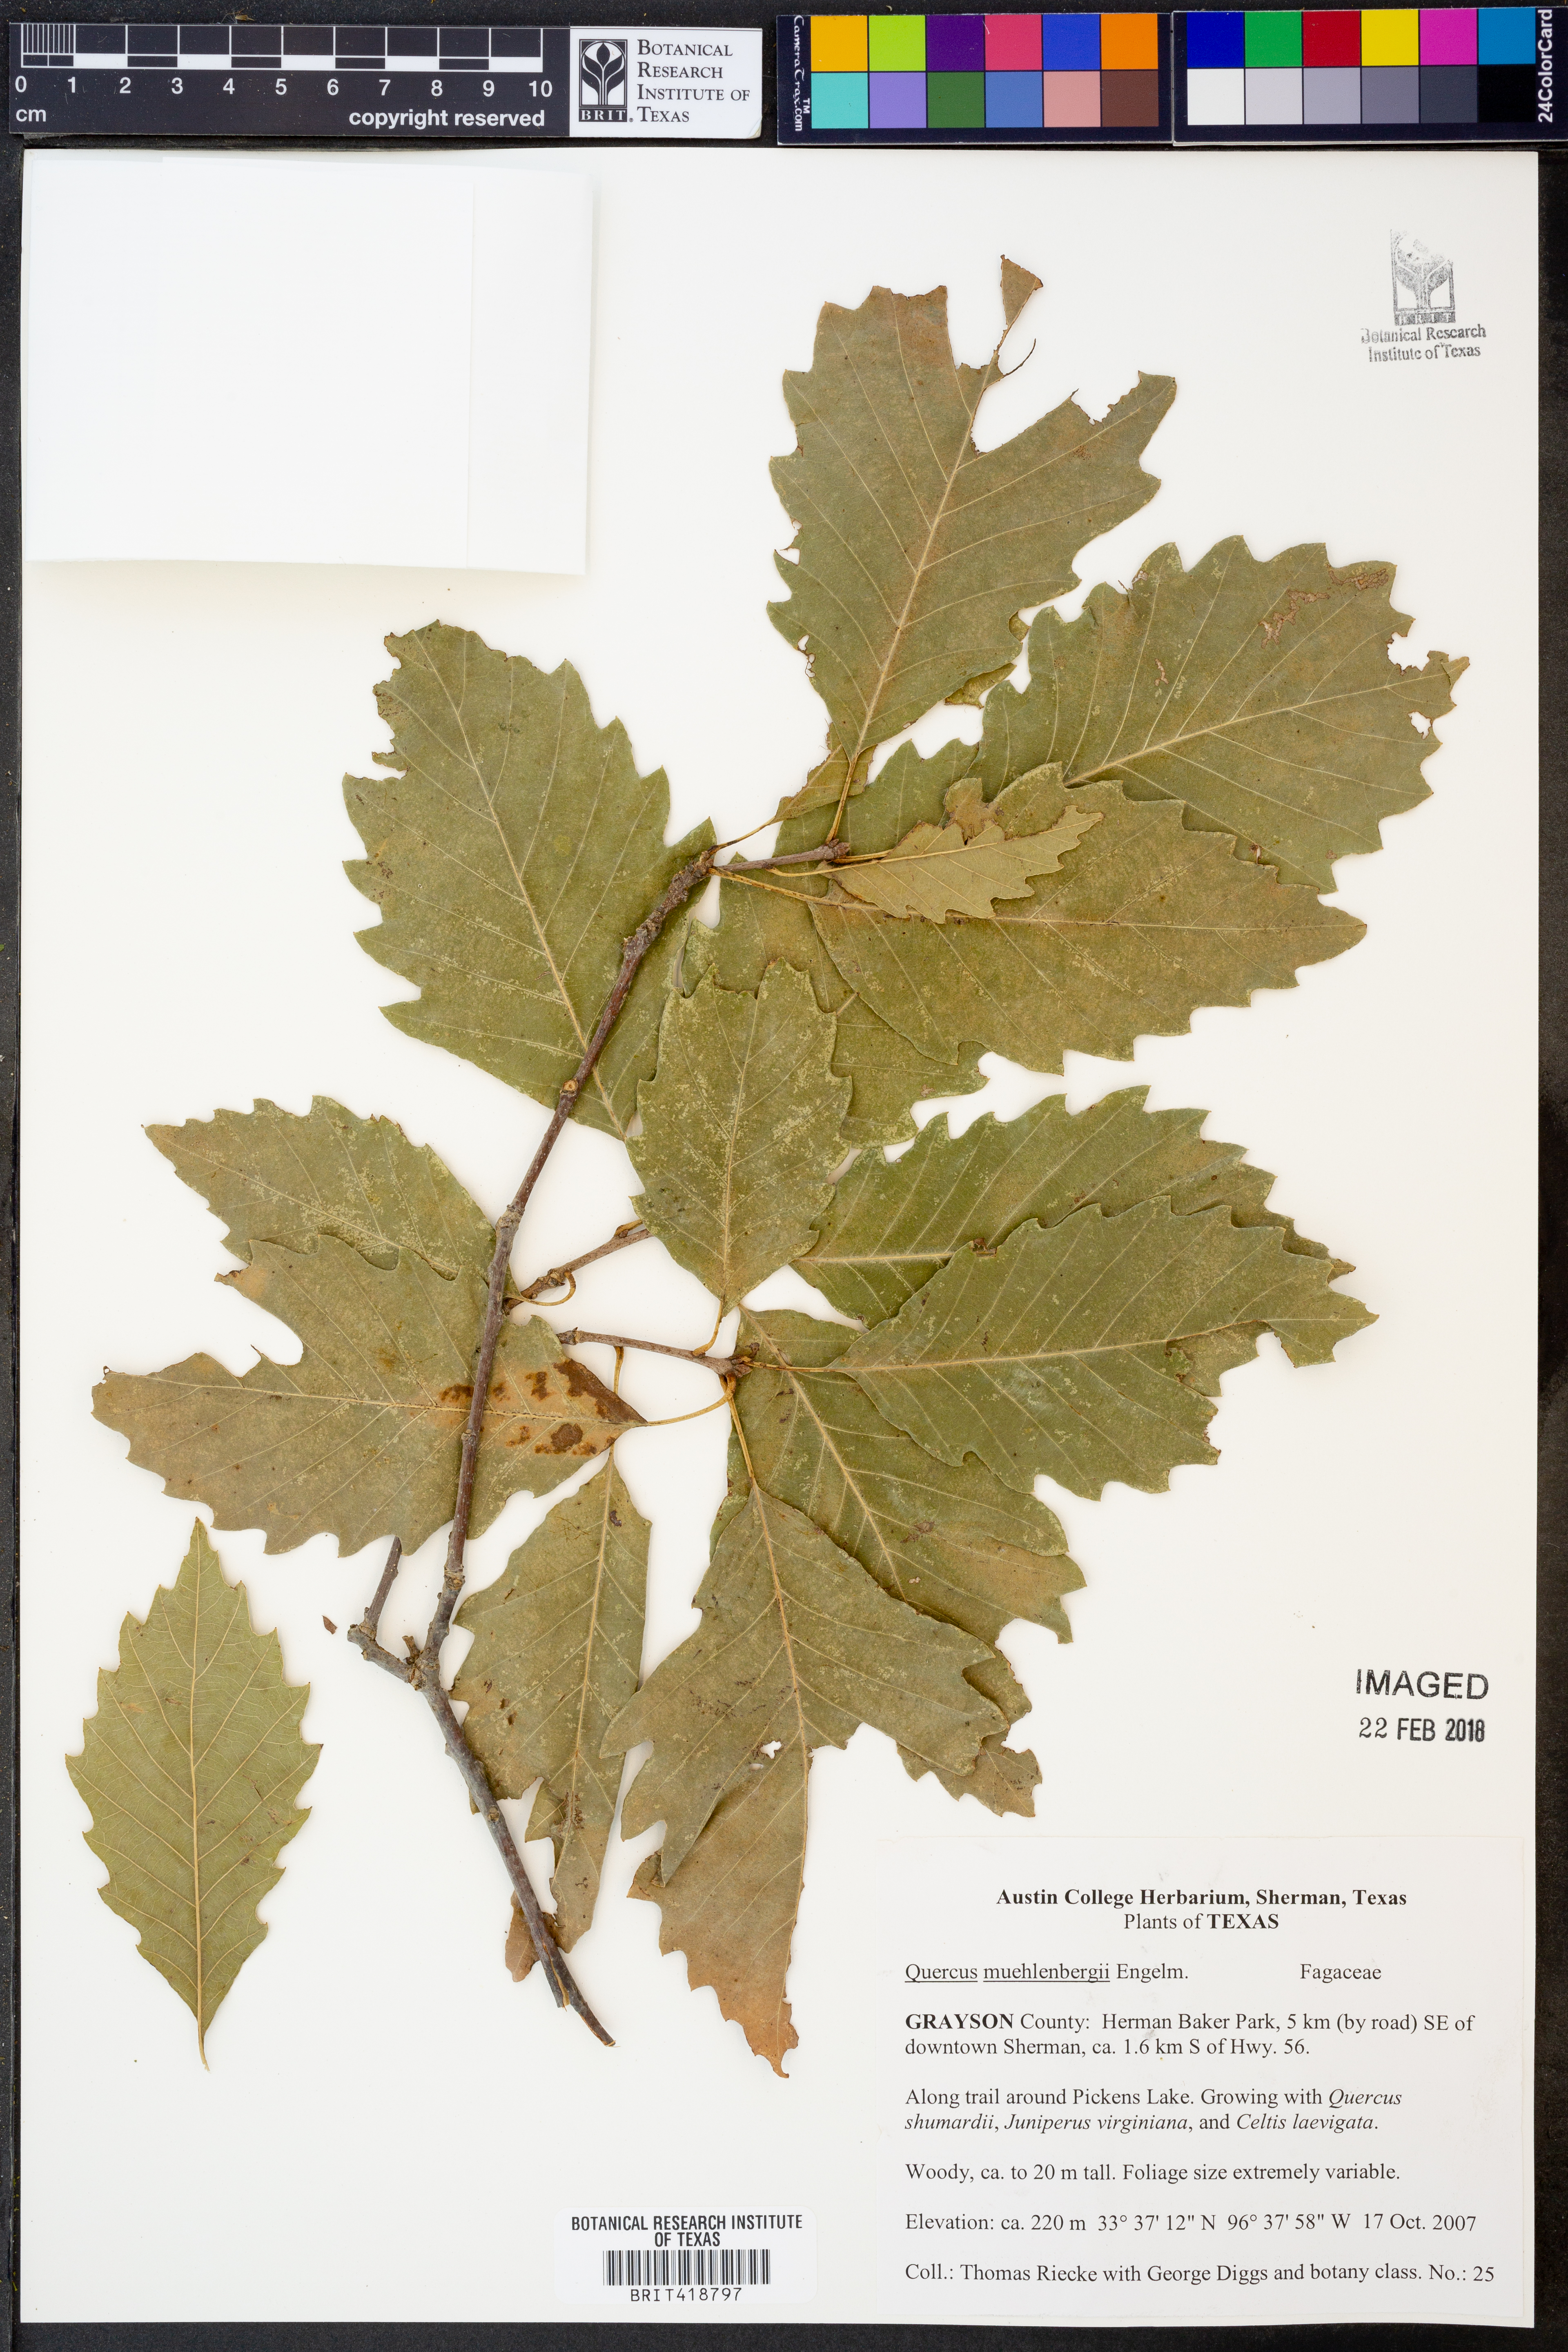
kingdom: Plantae
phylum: Tracheophyta
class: Magnoliopsida
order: Fagales
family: Fagaceae
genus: Quercus
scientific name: Quercus muehlenbergii
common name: Chinkapin oak
